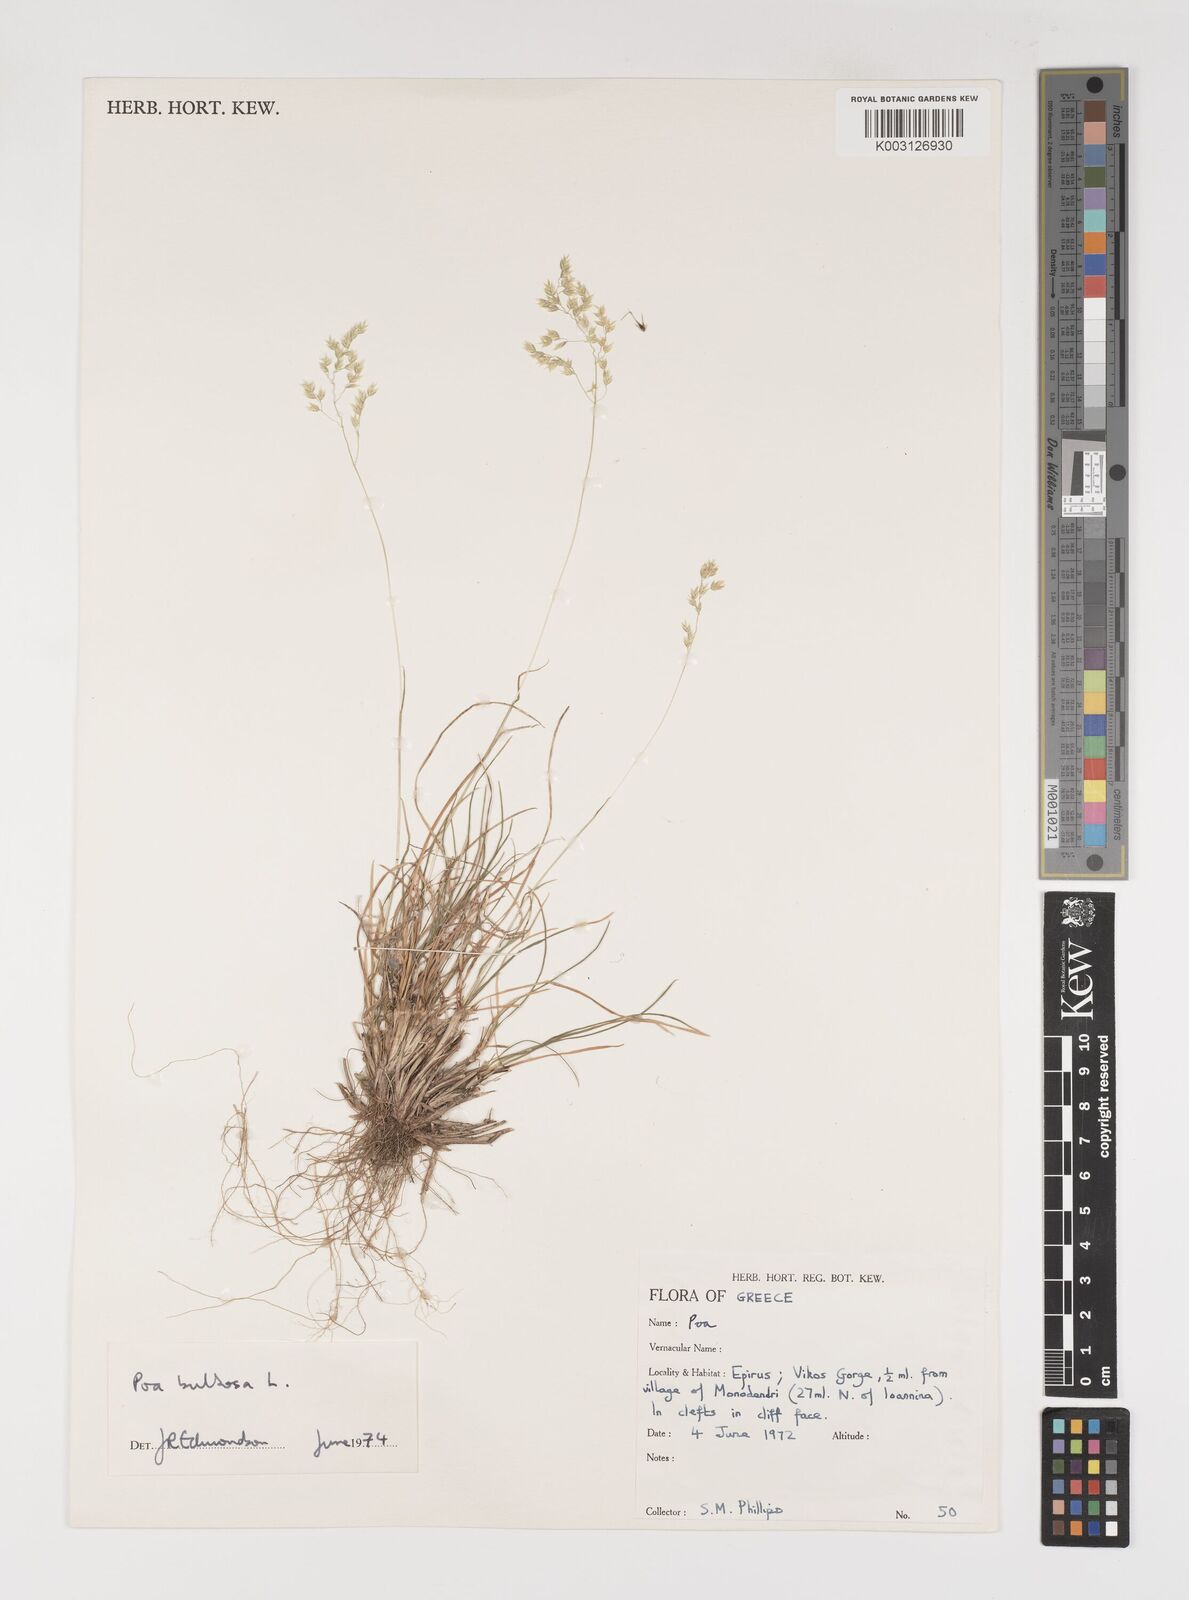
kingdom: Plantae
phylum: Tracheophyta
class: Liliopsida
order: Poales
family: Poaceae
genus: Poa
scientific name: Poa bulbosa
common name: Bulbous bluegrass
